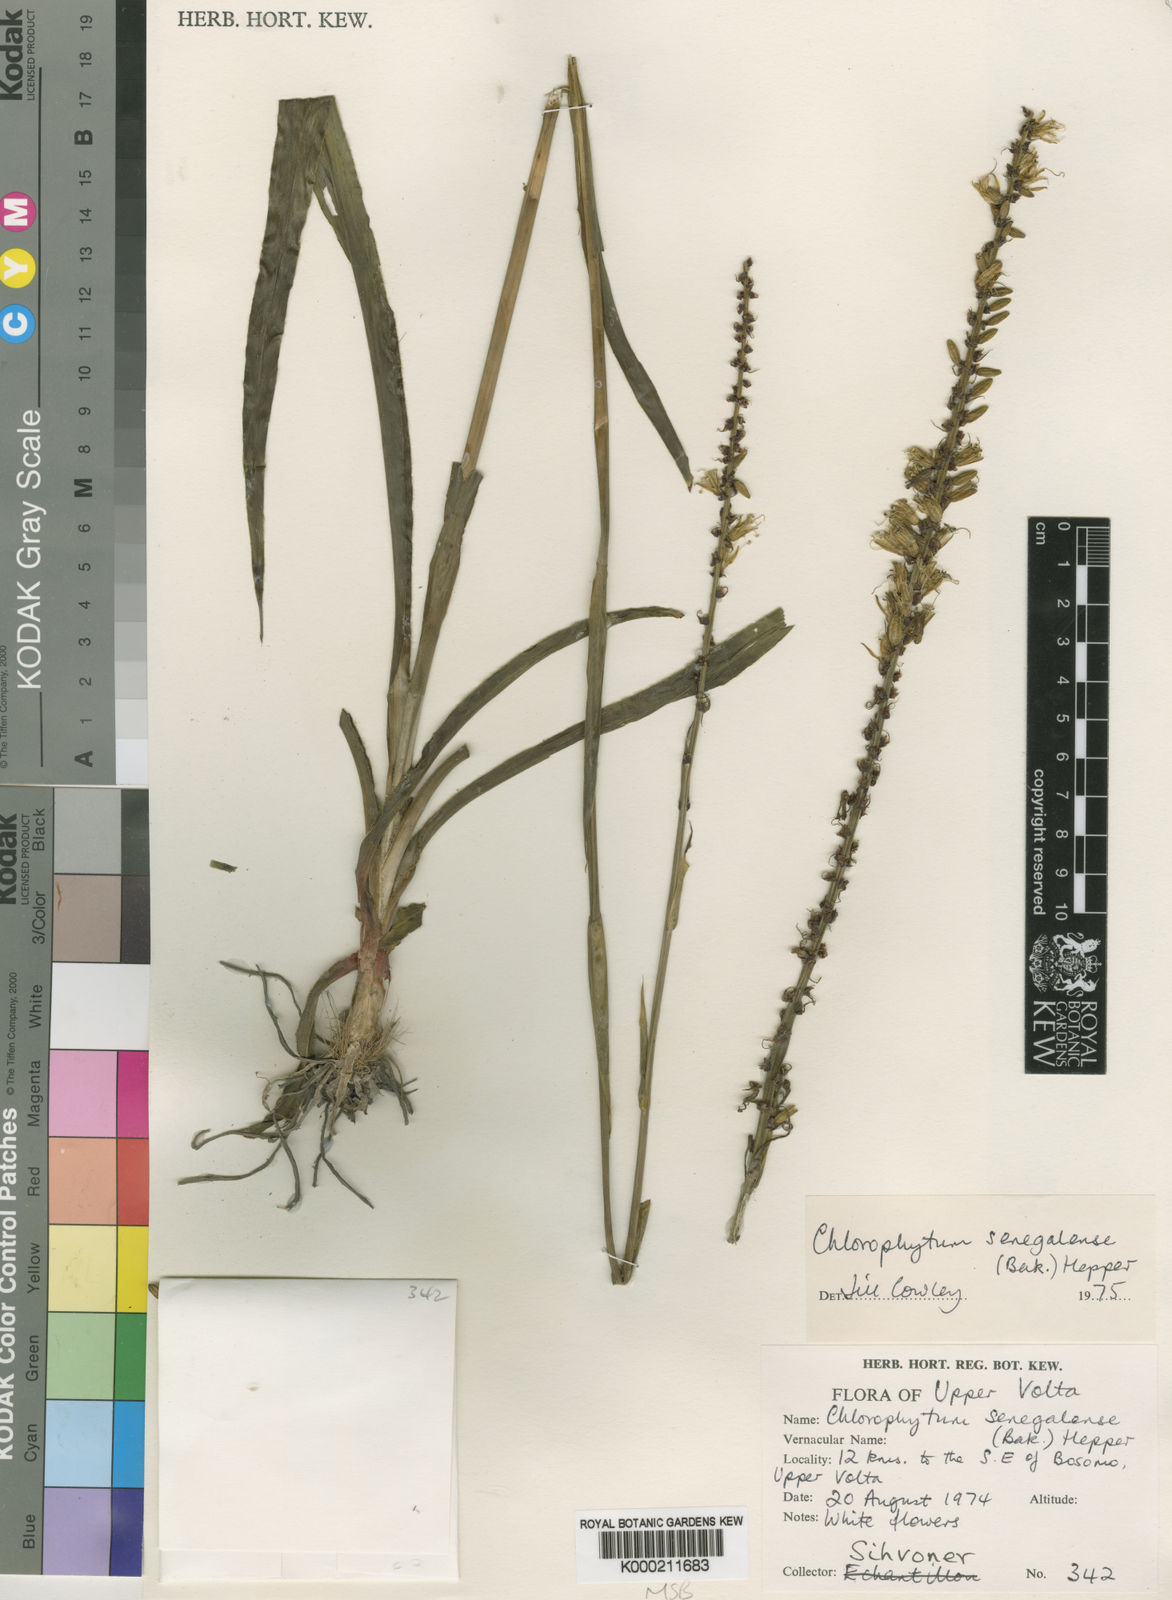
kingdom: Plantae
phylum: Tracheophyta
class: Liliopsida
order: Asparagales
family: Asparagaceae
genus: Chlorophytum
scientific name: Chlorophytum senegalense
